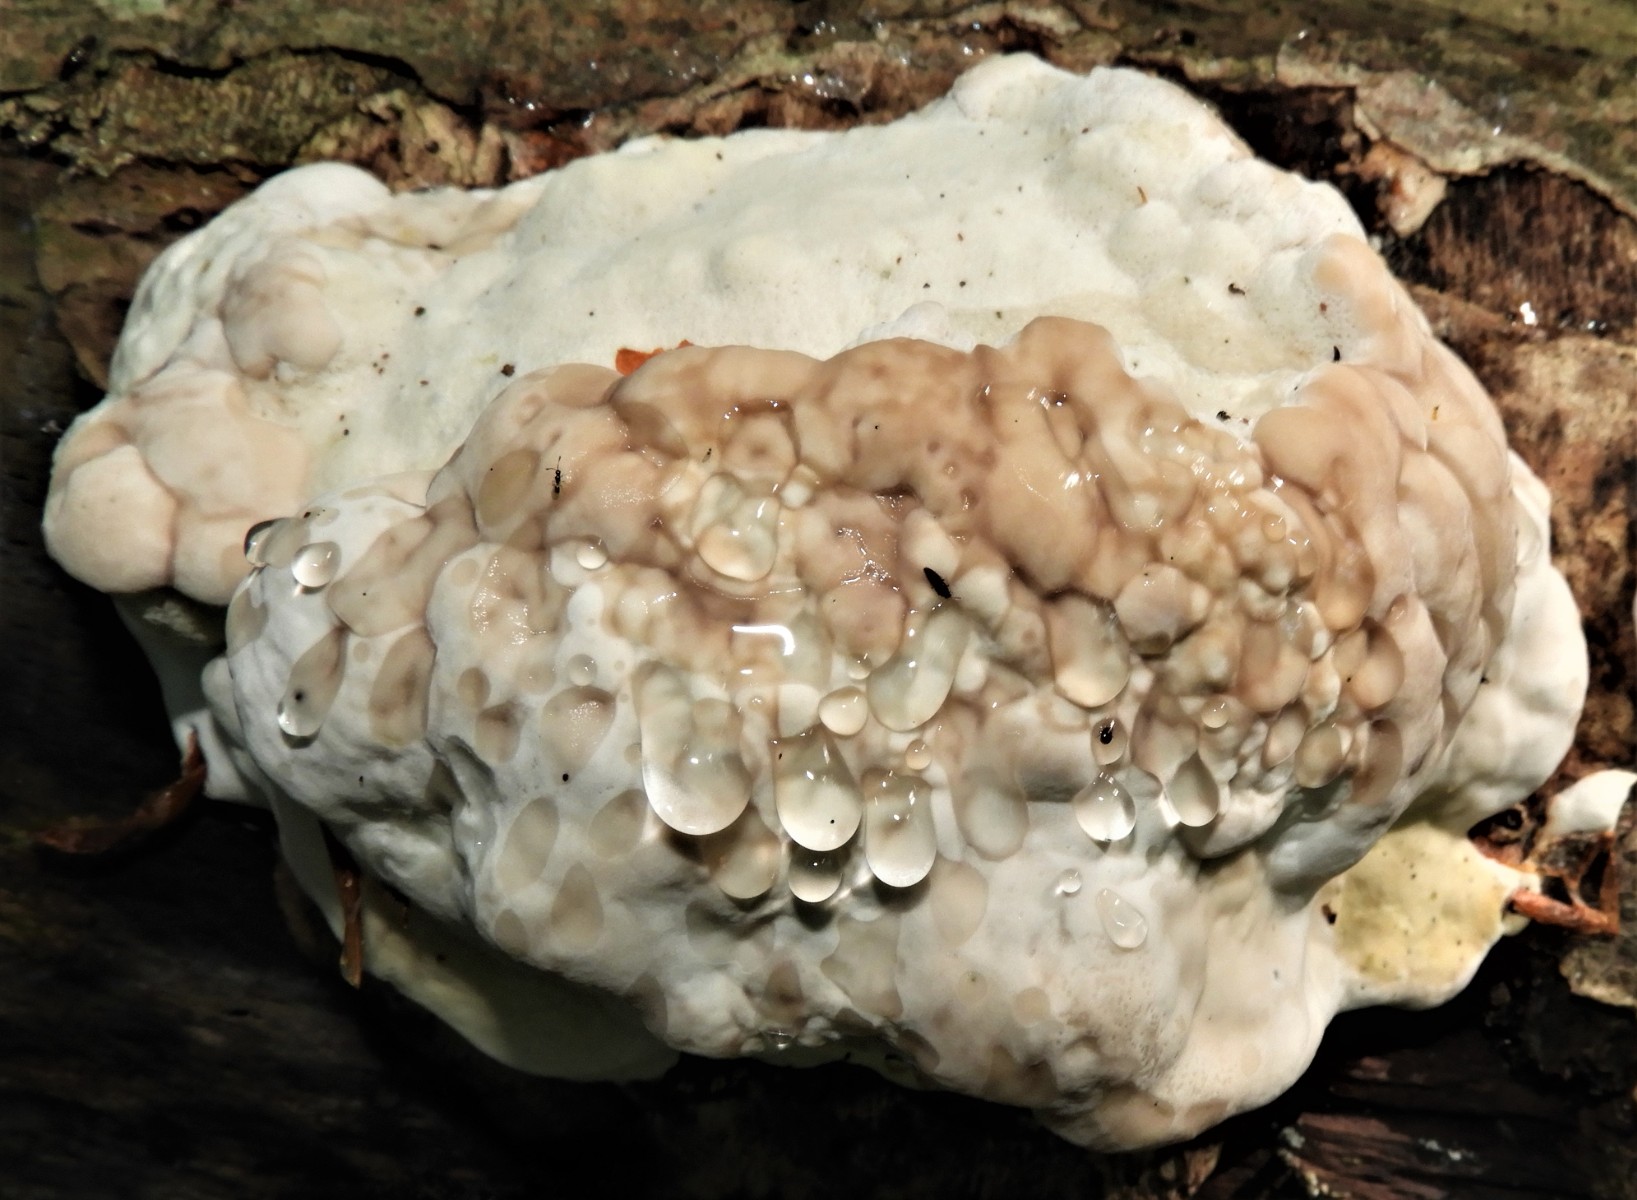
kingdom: Fungi
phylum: Basidiomycota
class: Agaricomycetes
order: Polyporales
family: Fomitopsidaceae
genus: Fomitopsis
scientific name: Fomitopsis pinicola
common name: randbæltet hovporesvamp
